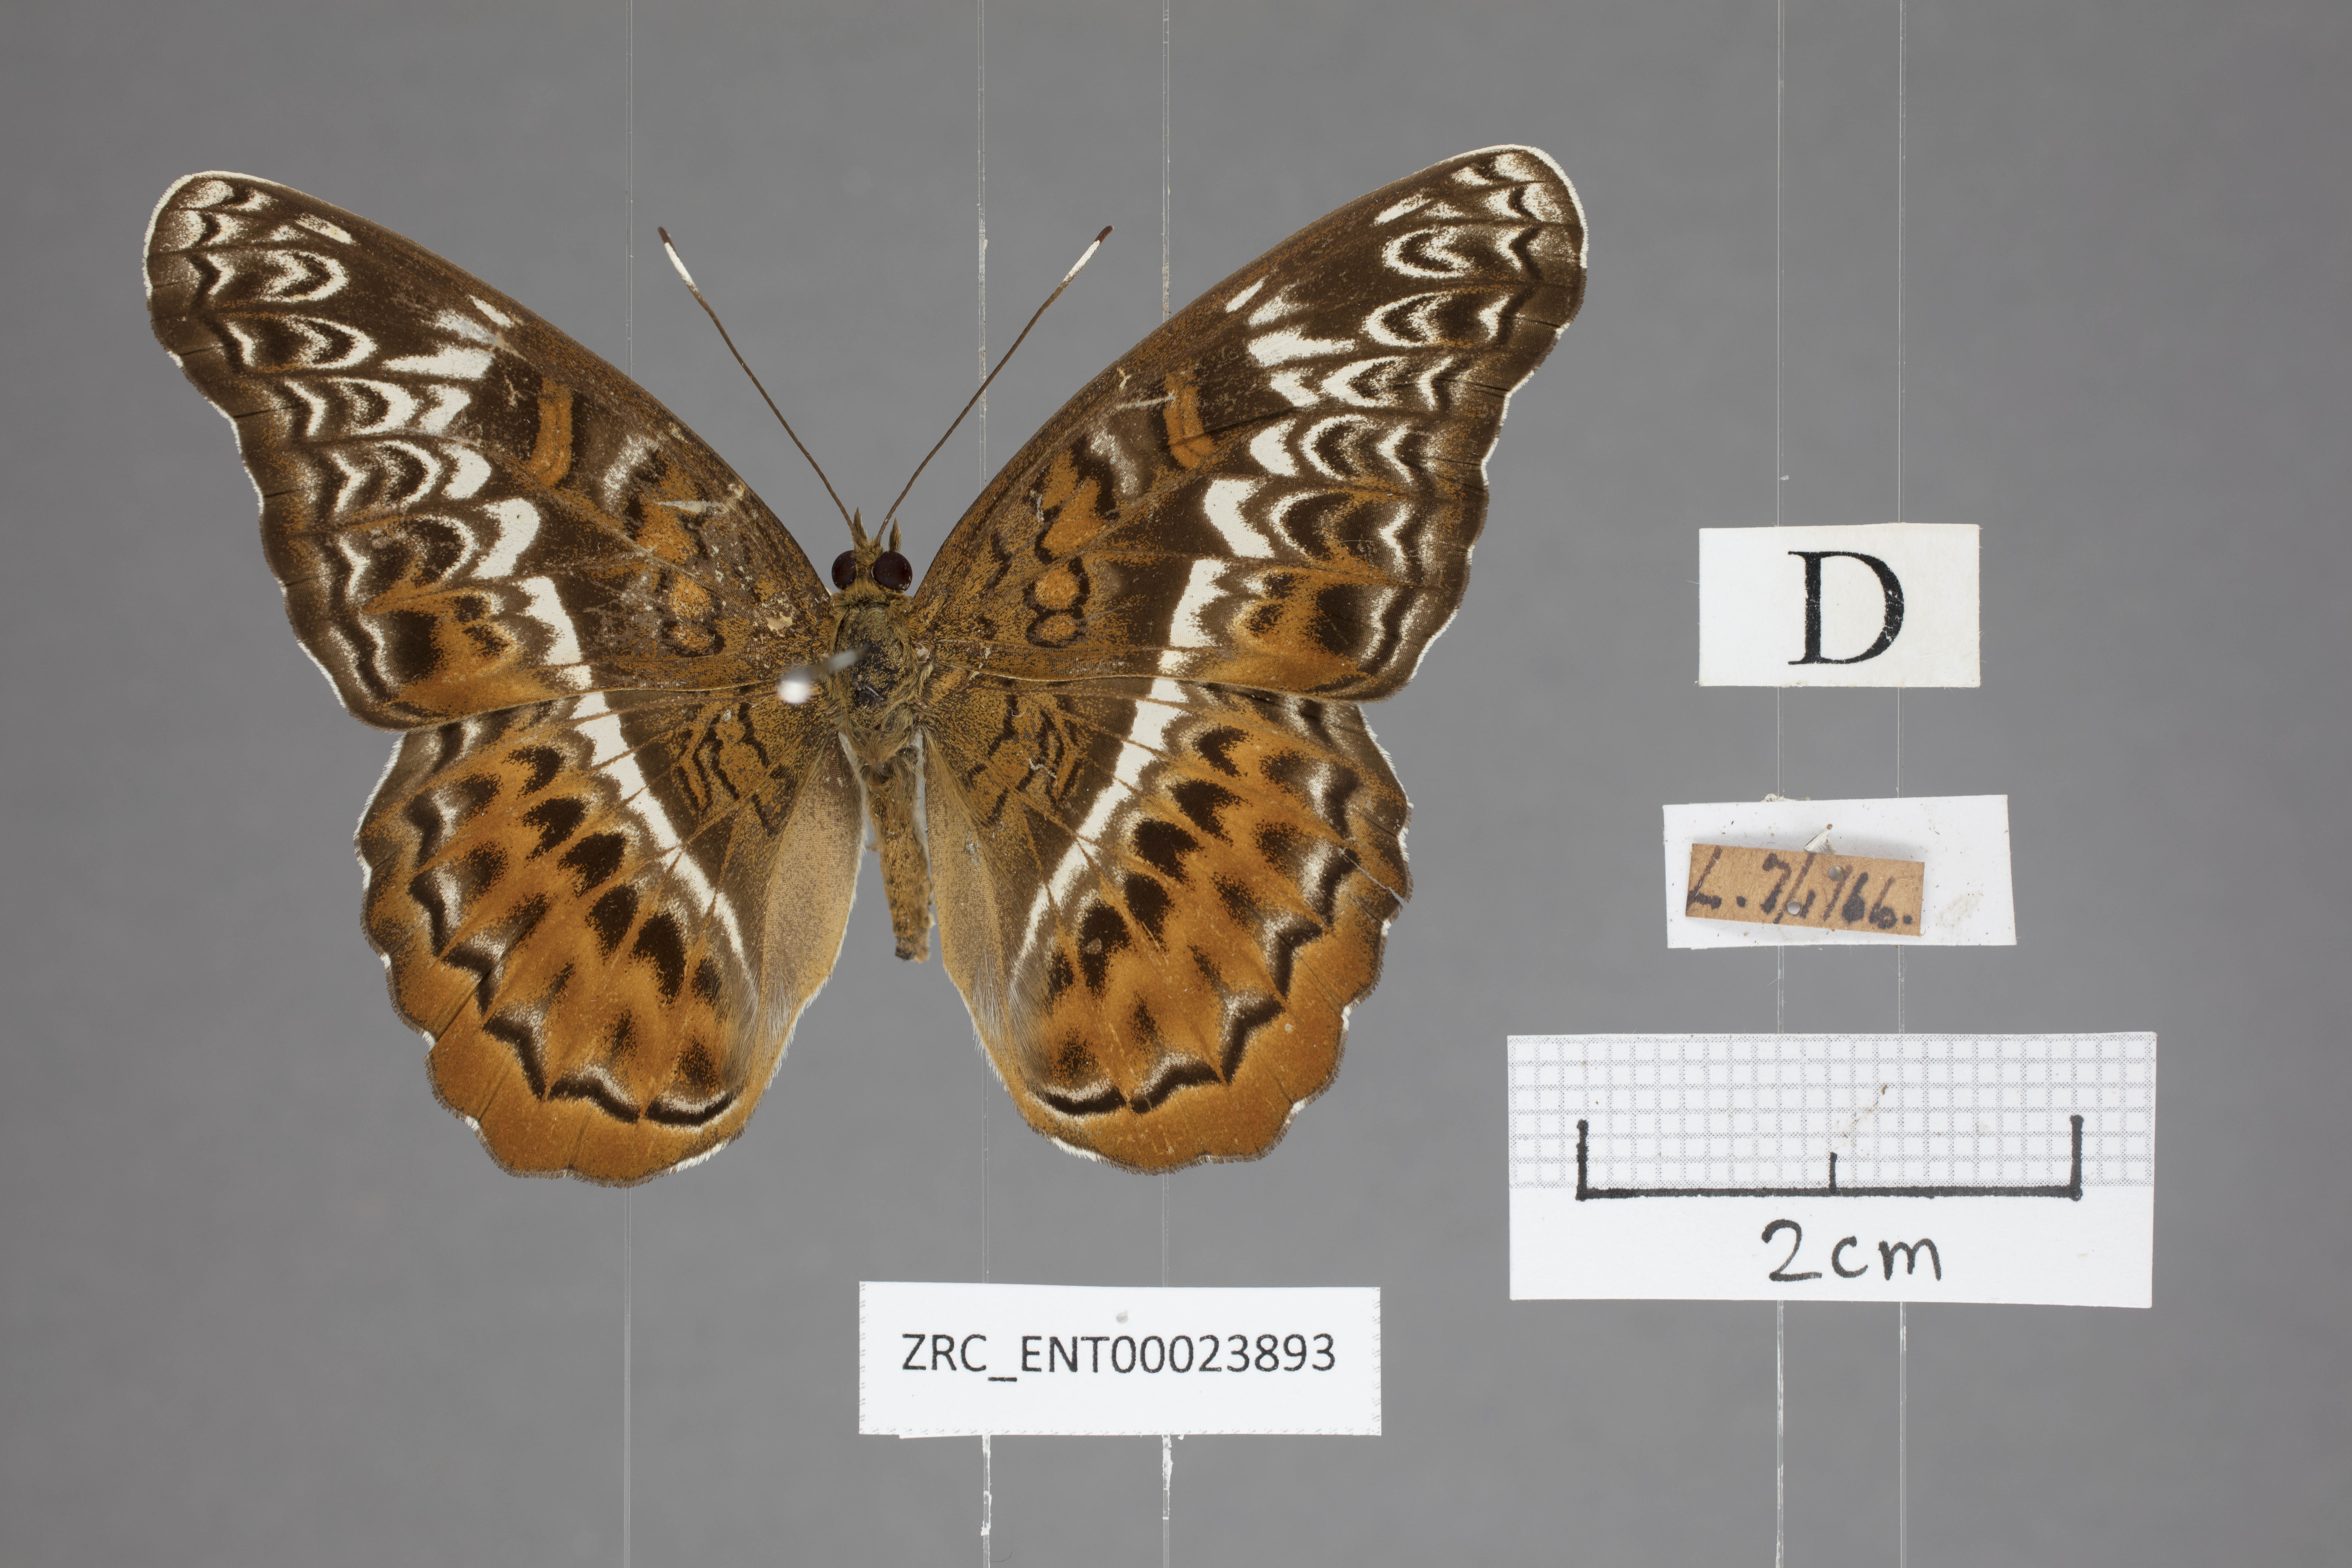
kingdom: Animalia
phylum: Arthropoda
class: Insecta
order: Lepidoptera
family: Nymphalidae
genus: Lebadea
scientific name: Lebadea martha
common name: Knight
